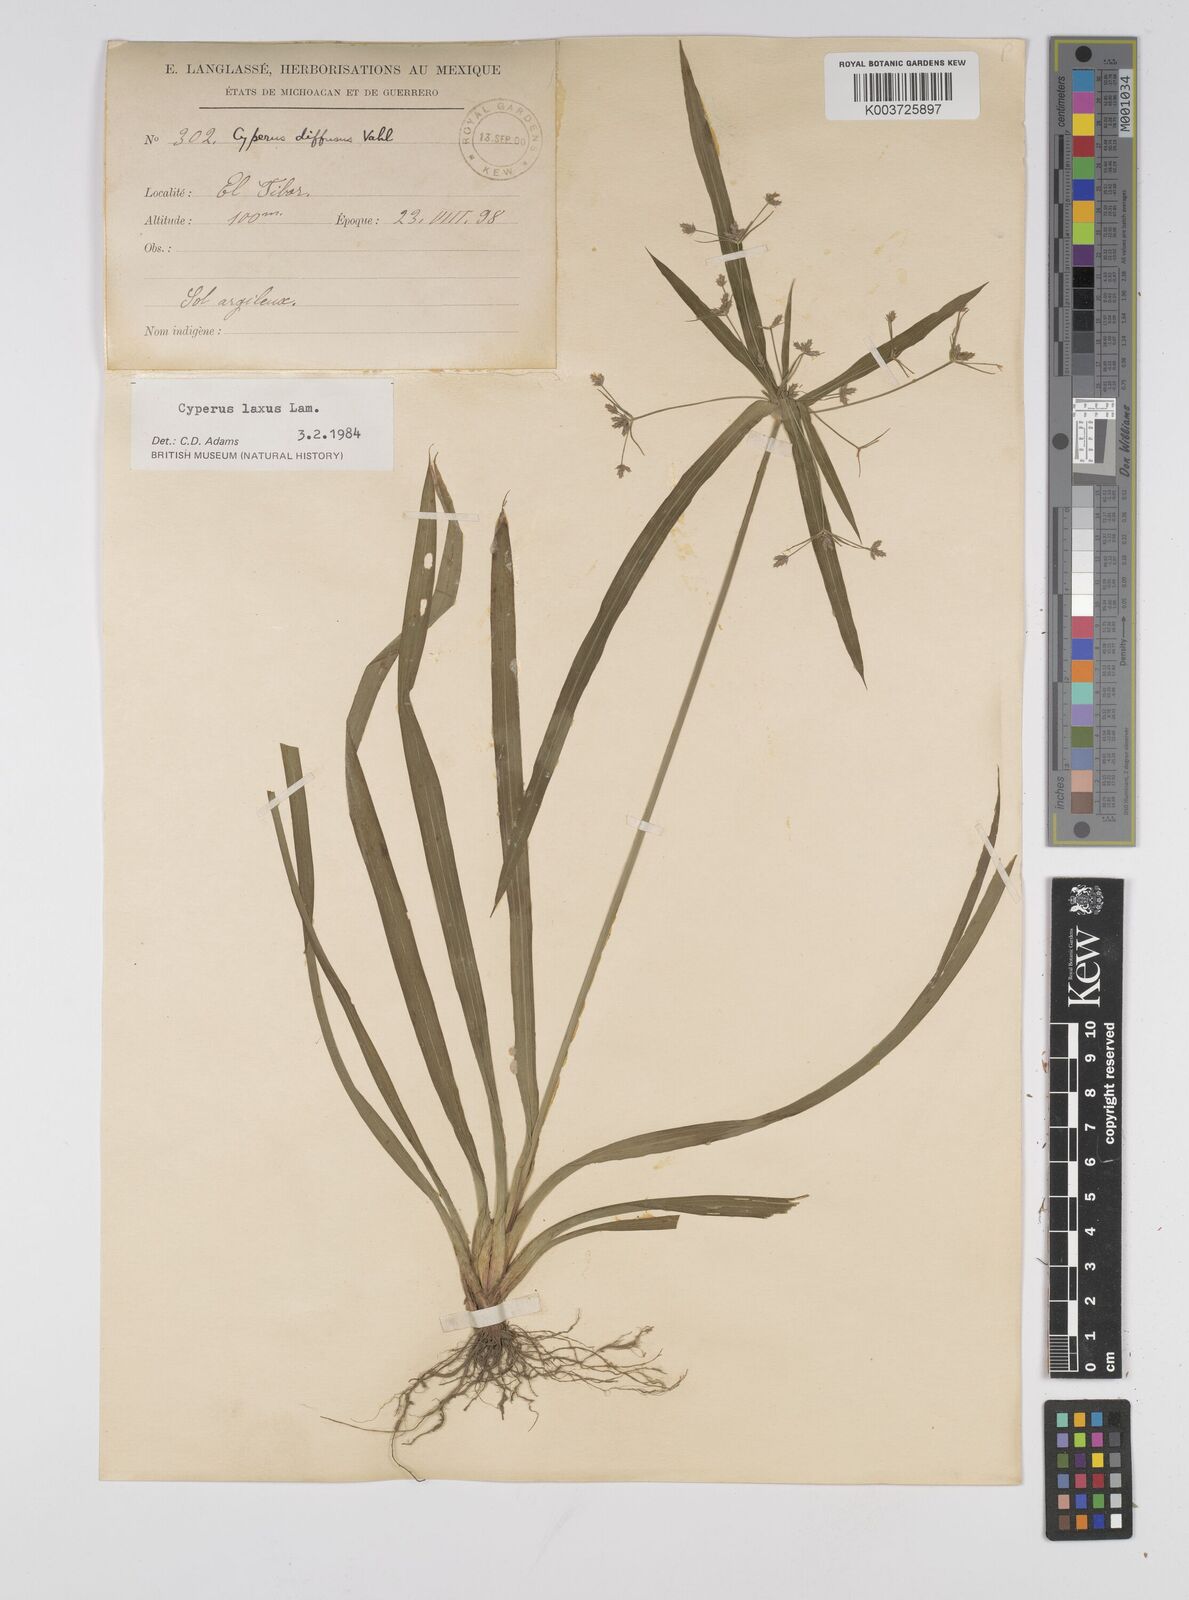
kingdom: Plantae
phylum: Tracheophyta
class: Liliopsida
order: Poales
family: Cyperaceae
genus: Cyperus
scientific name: Cyperus chalaranthus
